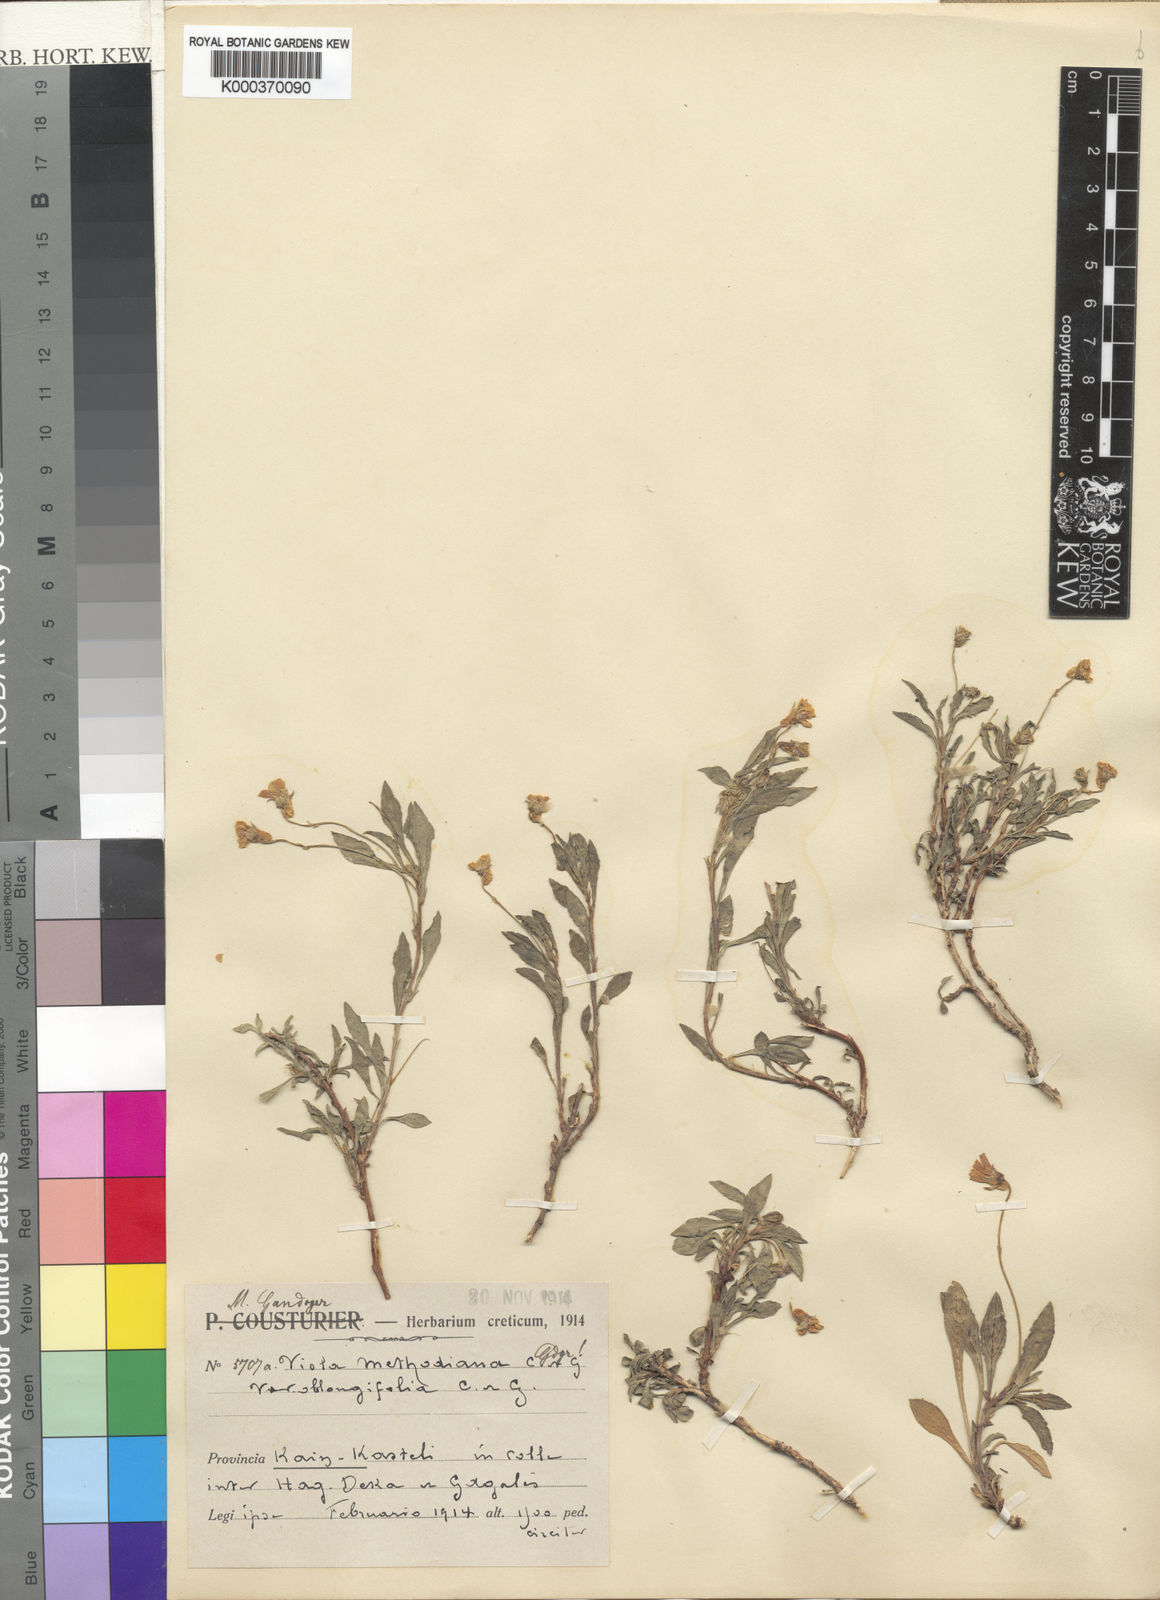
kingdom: Plantae
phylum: Tracheophyta
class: Magnoliopsida
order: Malpighiales
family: Violaceae
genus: Viola
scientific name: Viola scorpiuroides
